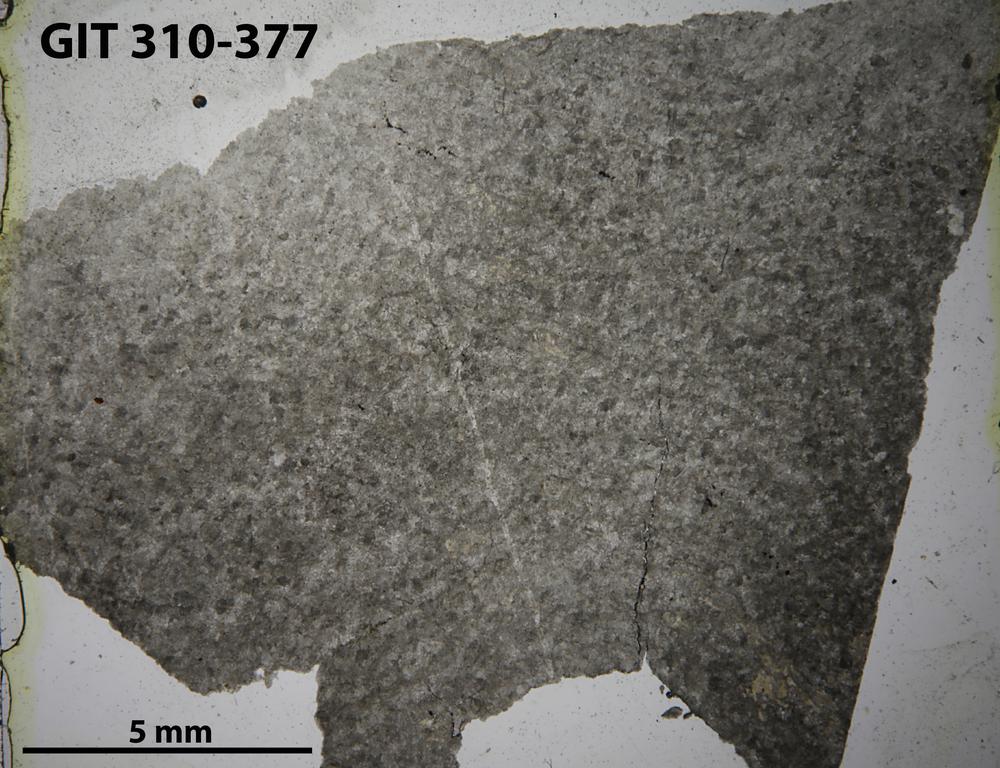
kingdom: Animalia
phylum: Porifera
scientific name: Porifera
